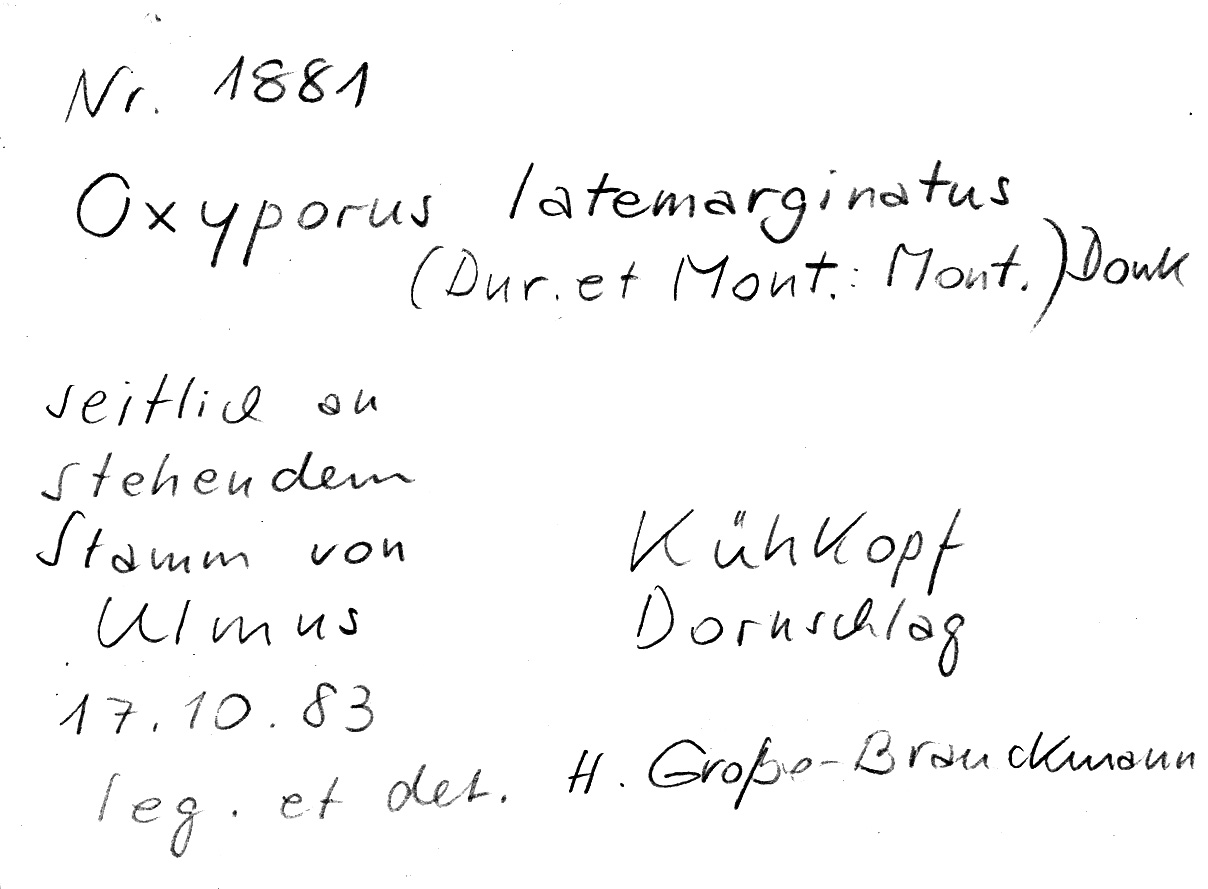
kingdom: Fungi
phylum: Basidiomycota
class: Agaricomycetes
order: Polyporales
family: Irpicaceae
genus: Irpex
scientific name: Irpex latemarginatus
